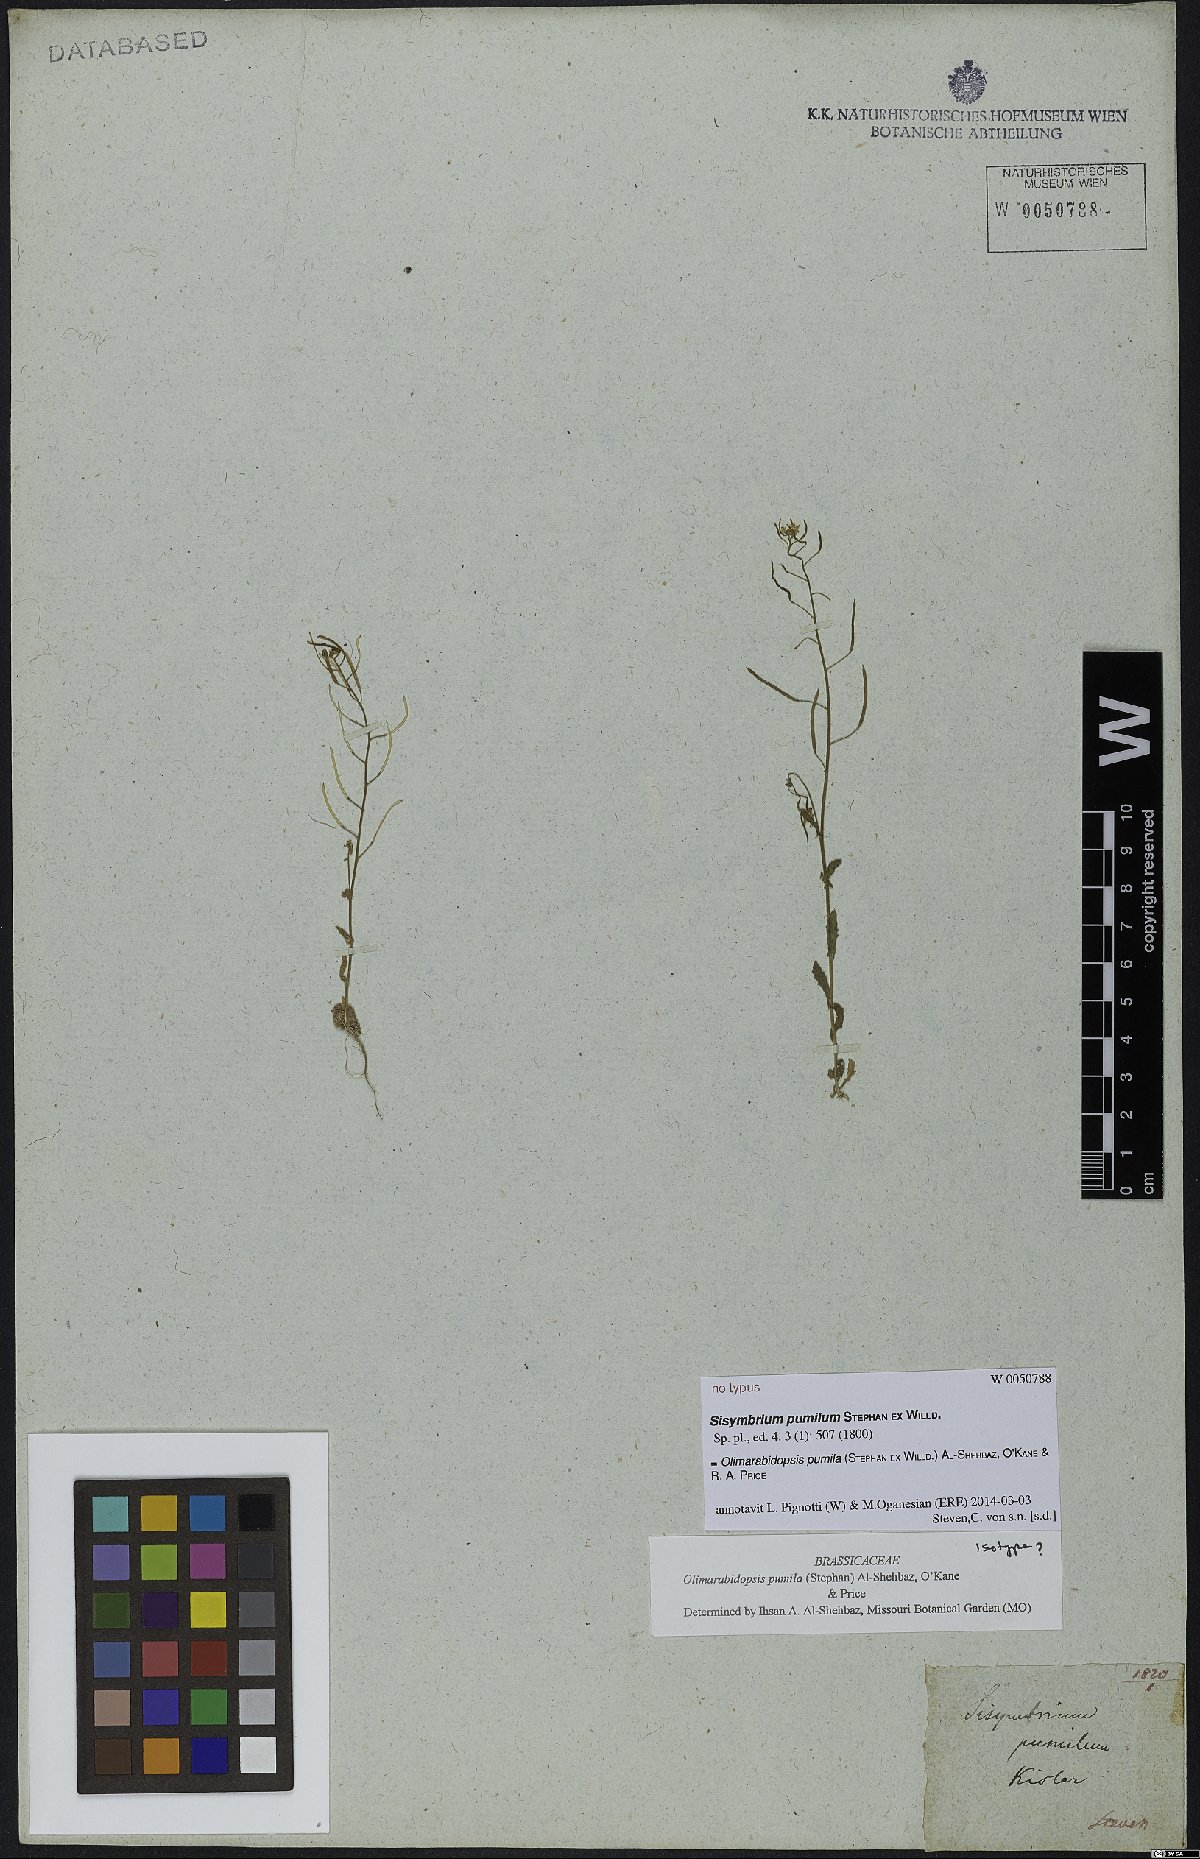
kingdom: Plantae
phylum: Tracheophyta
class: Magnoliopsida
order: Brassicales
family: Brassicaceae
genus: Sisymbrium
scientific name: Sisymbrium pumilum
